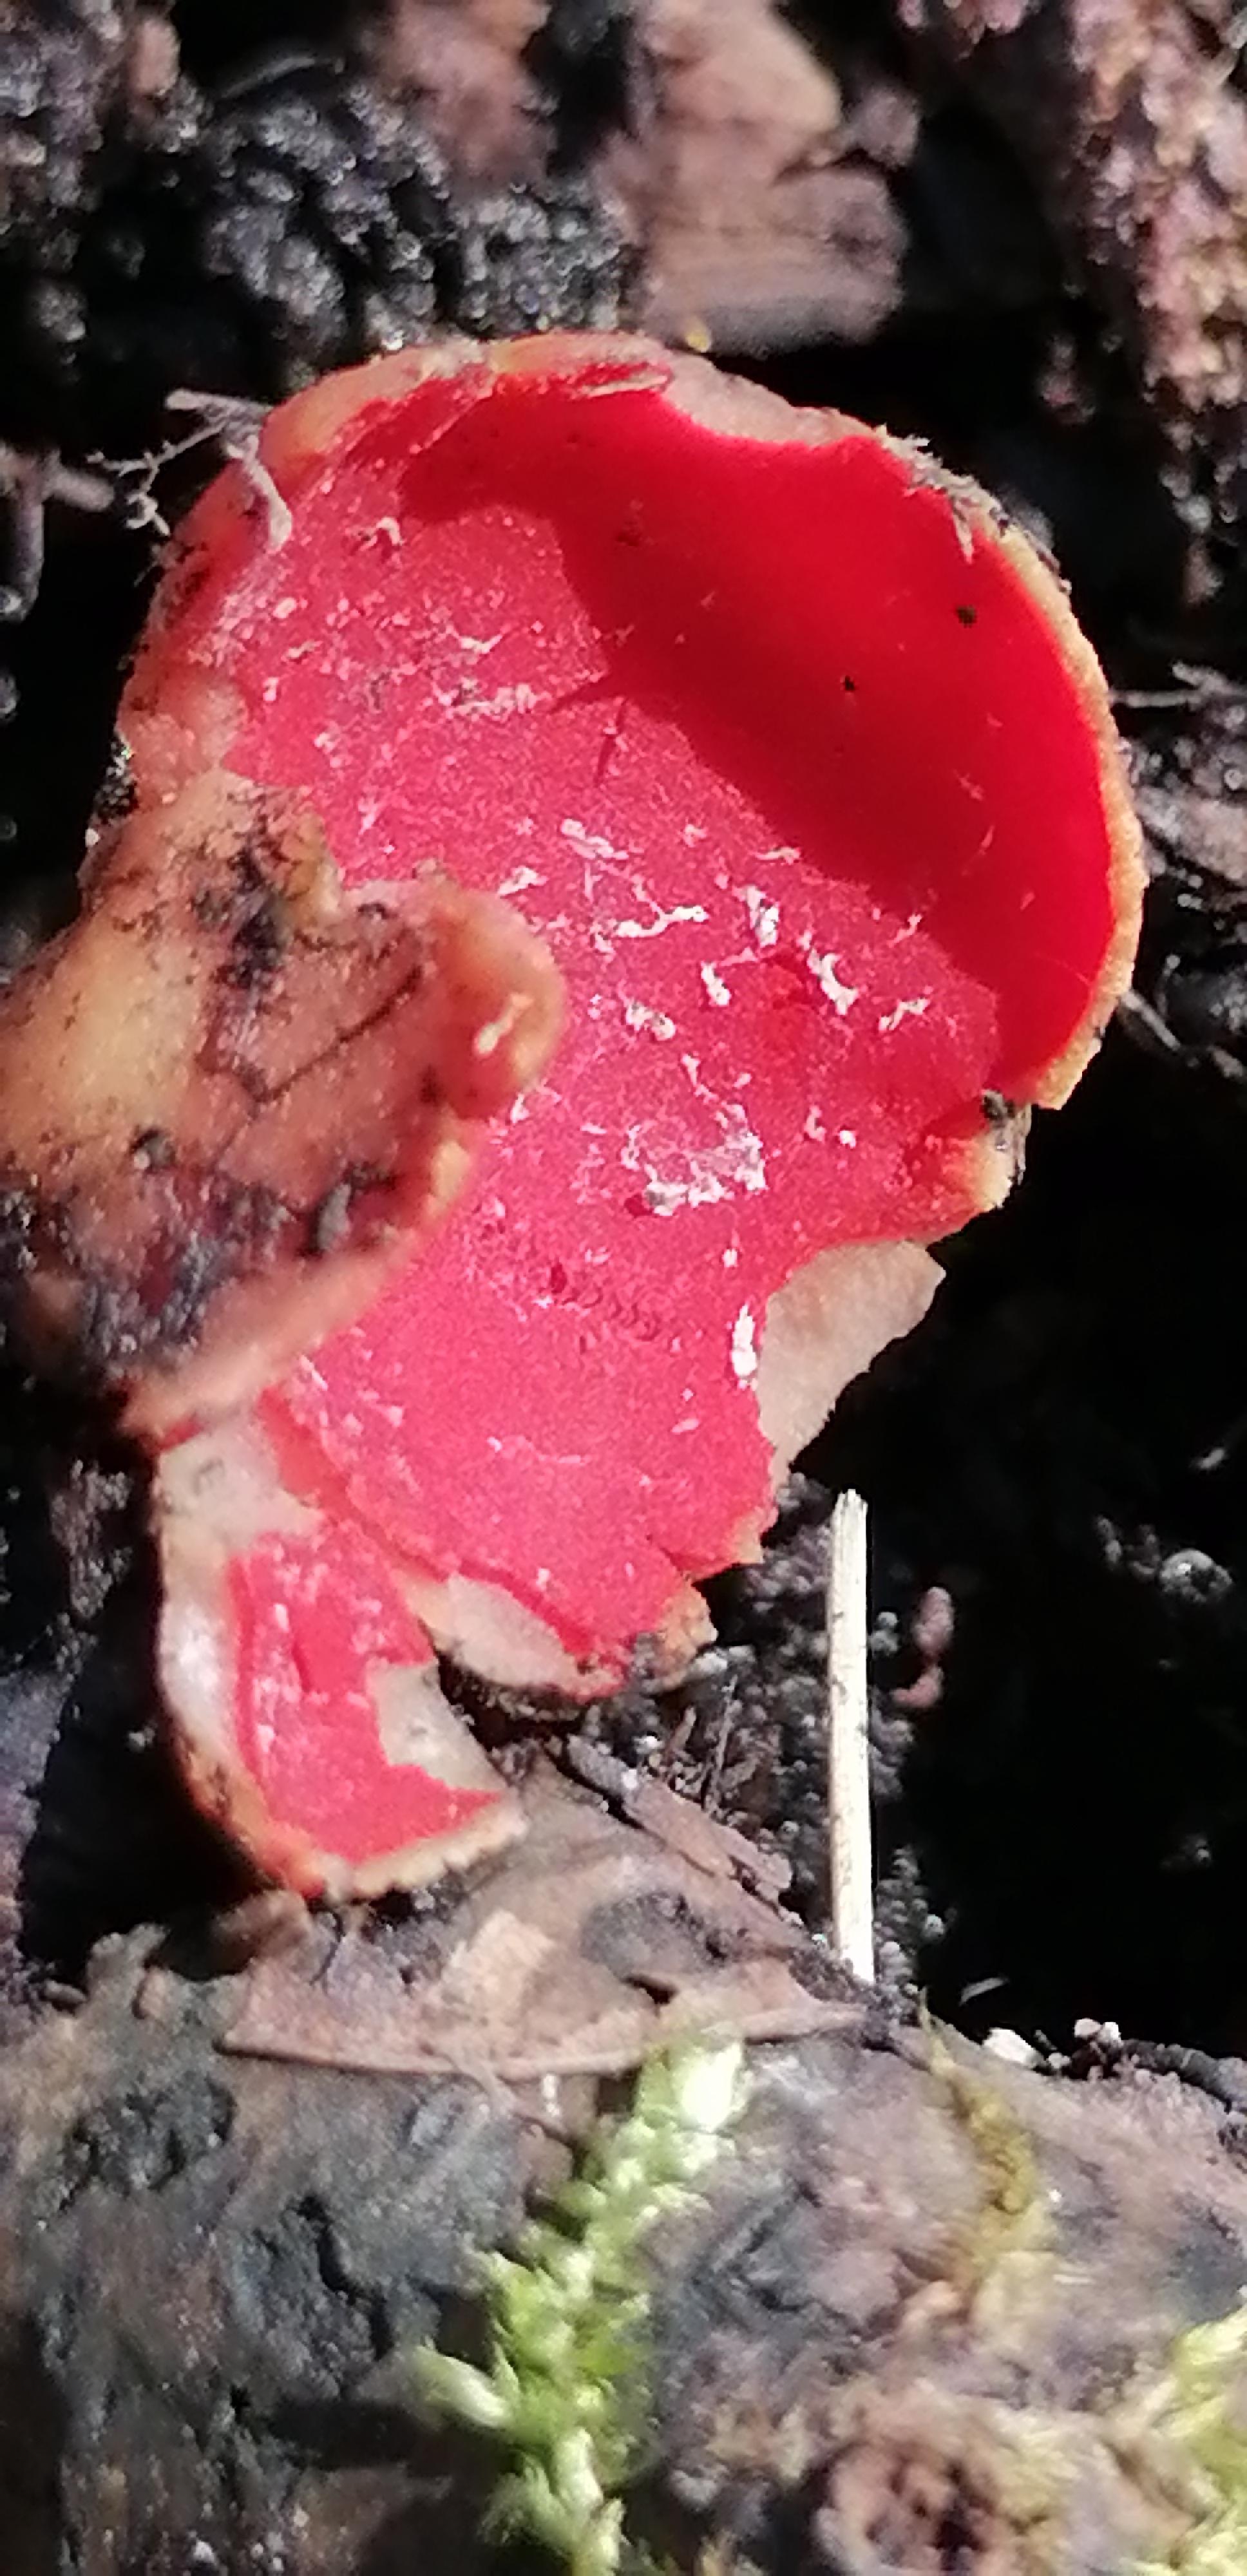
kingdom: Fungi
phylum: Ascomycota
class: Pezizomycetes
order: Pezizales
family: Sarcoscyphaceae
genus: Sarcoscypha
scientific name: Sarcoscypha austriaca
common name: krølhåret pragtbæger
